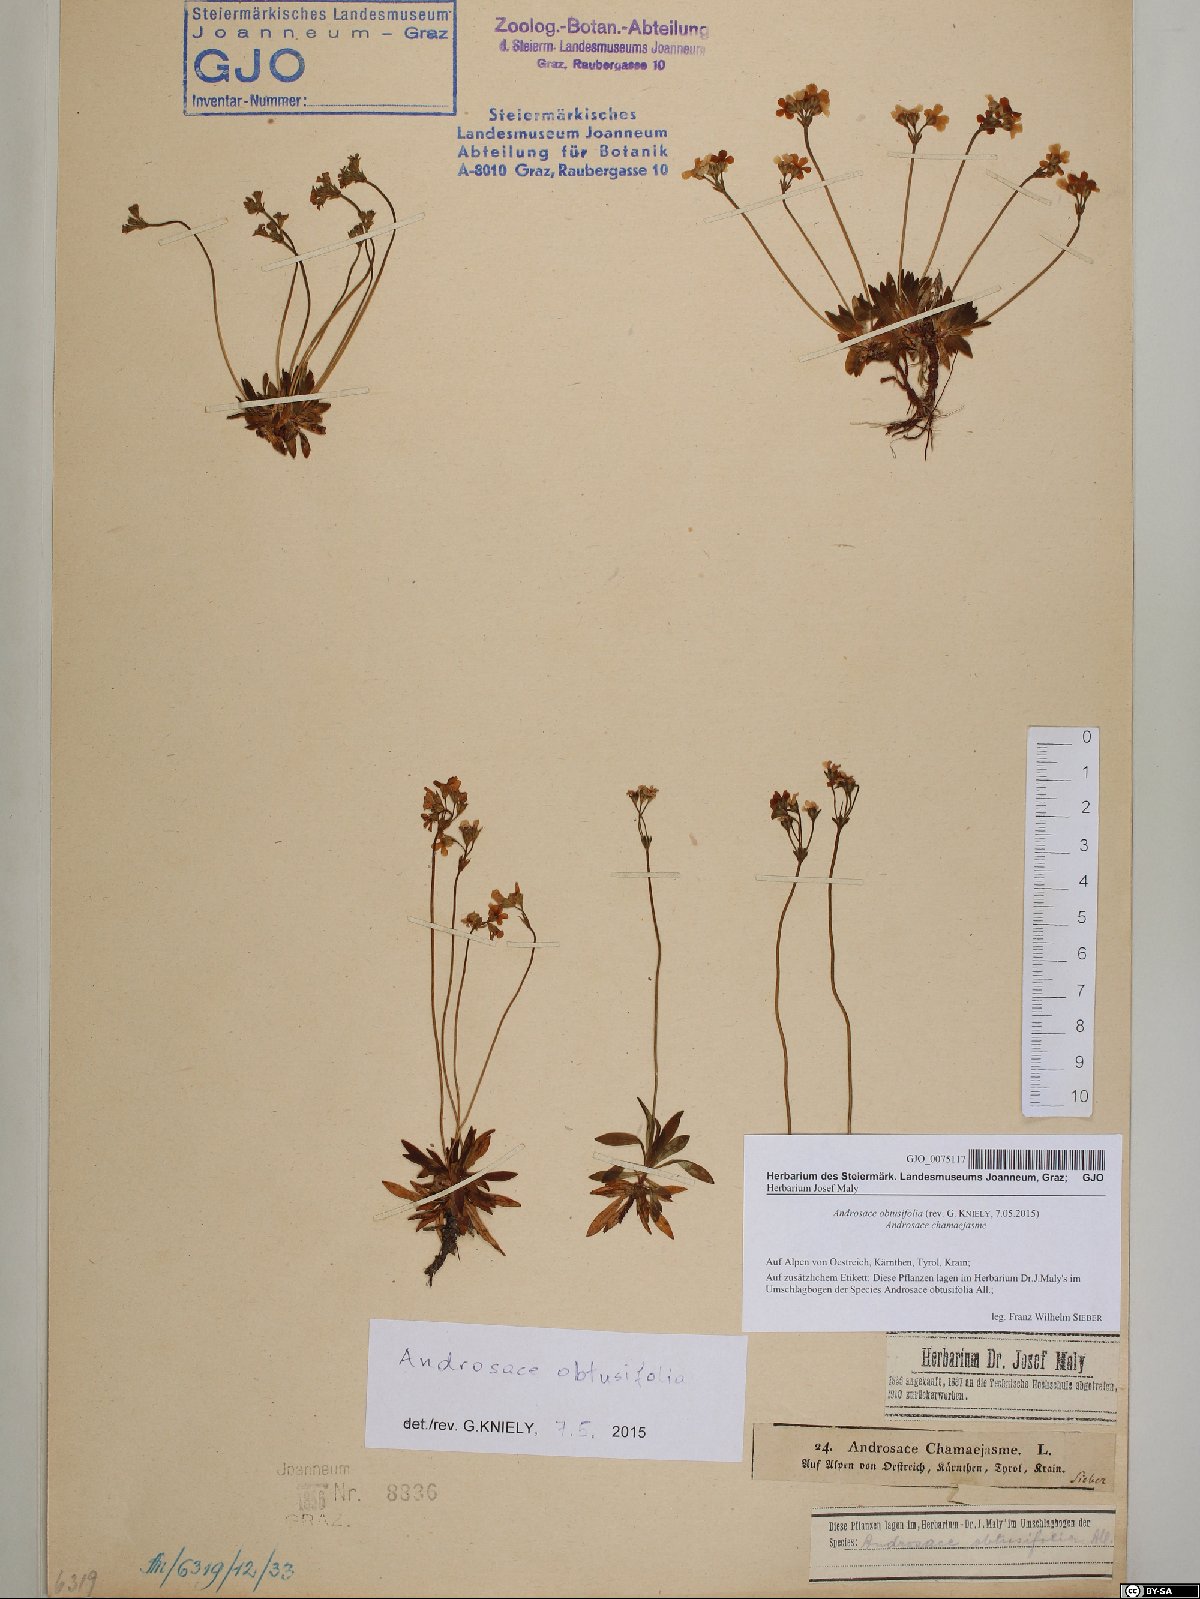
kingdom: Plantae
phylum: Tracheophyta
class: Magnoliopsida
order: Ericales
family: Primulaceae
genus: Androsace
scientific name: Androsace obtusifolia
